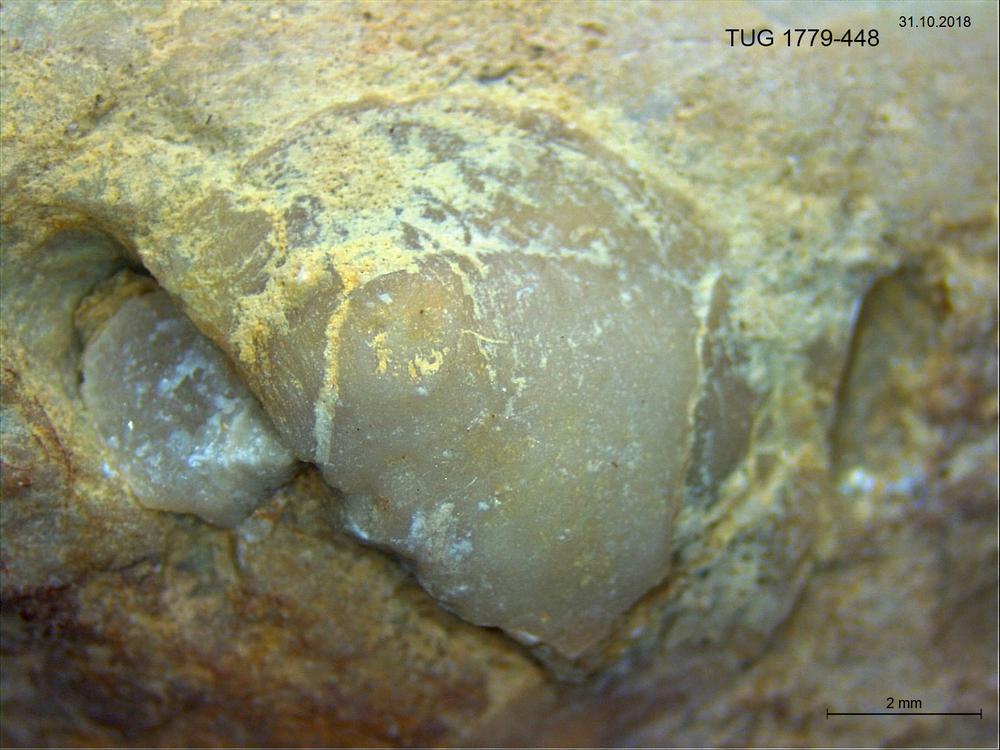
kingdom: Animalia
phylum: Brachiopoda
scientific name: Brachiopoda
